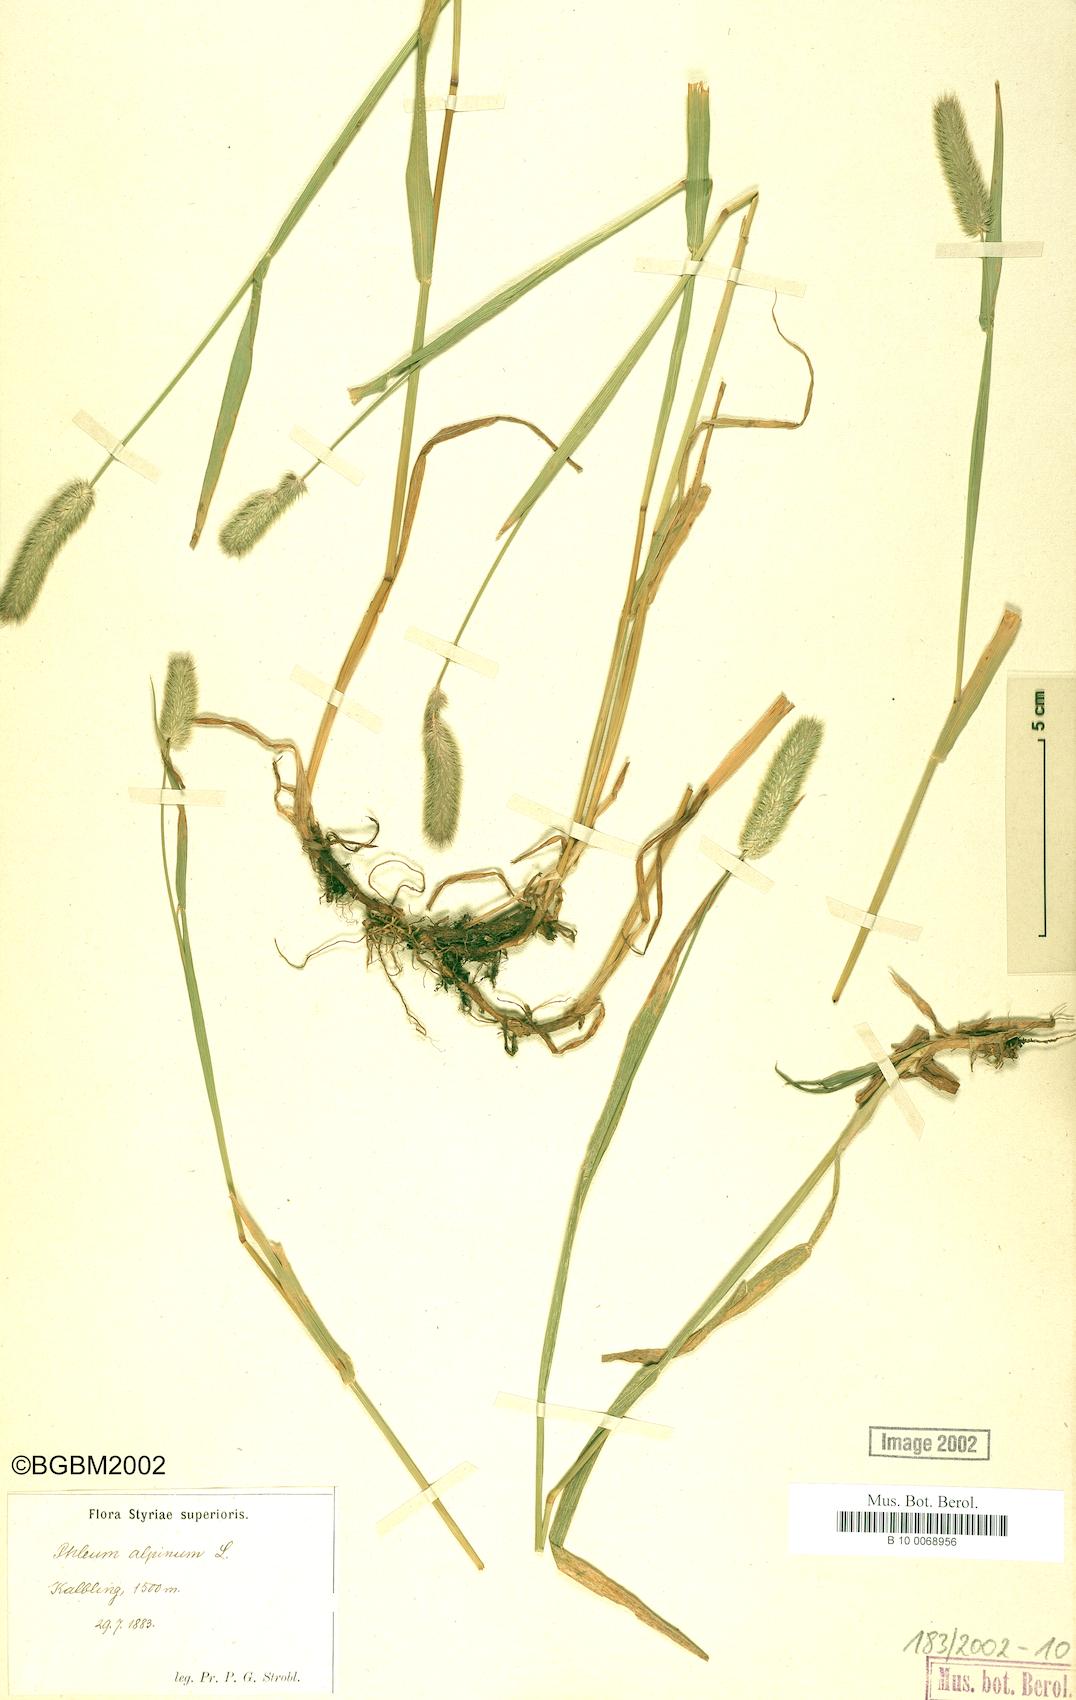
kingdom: Plantae
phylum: Tracheophyta
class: Liliopsida
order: Poales
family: Poaceae
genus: Phleum
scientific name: Phleum alpinum
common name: Alpine cat's-tail
